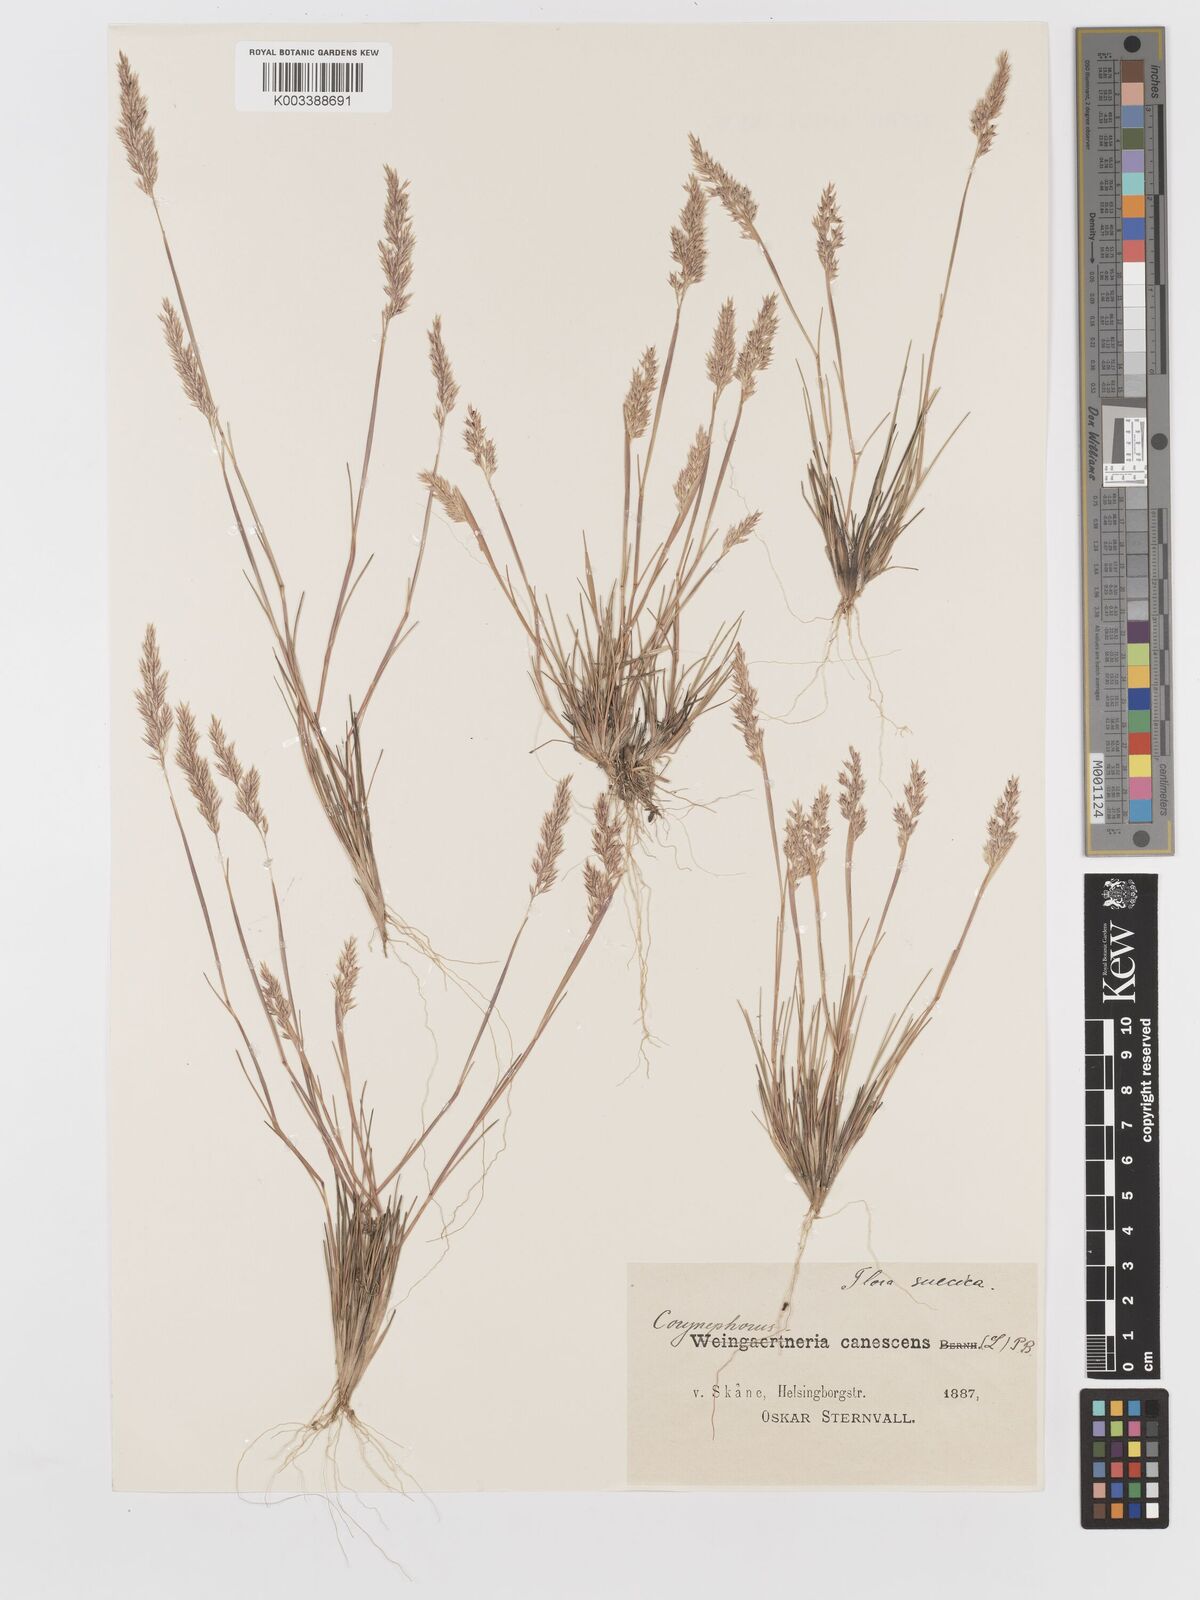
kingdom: Plantae
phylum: Tracheophyta
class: Liliopsida
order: Poales
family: Poaceae
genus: Corynephorus
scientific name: Corynephorus canescens
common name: Grey hair-grass
